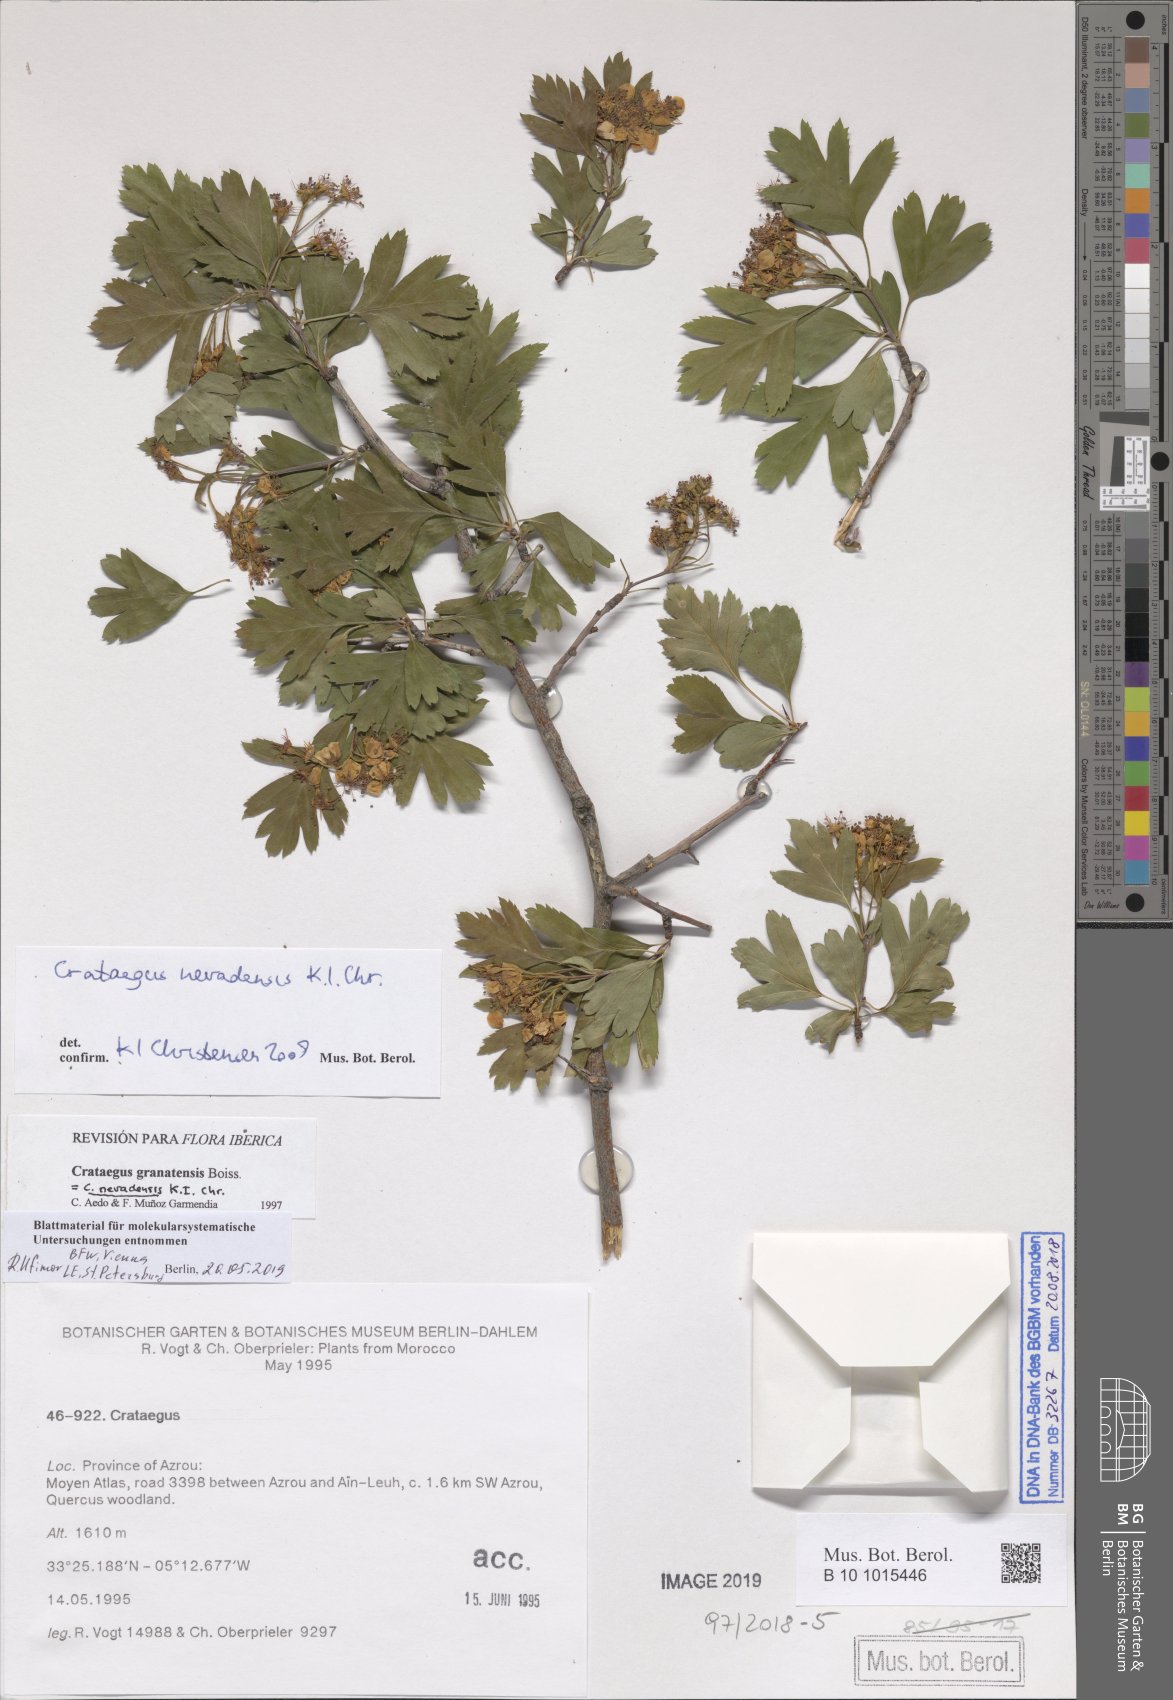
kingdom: Plantae
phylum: Tracheophyta
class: Magnoliopsida
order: Rosales
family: Rosaceae
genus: Crataegus
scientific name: Crataegus granatensis
